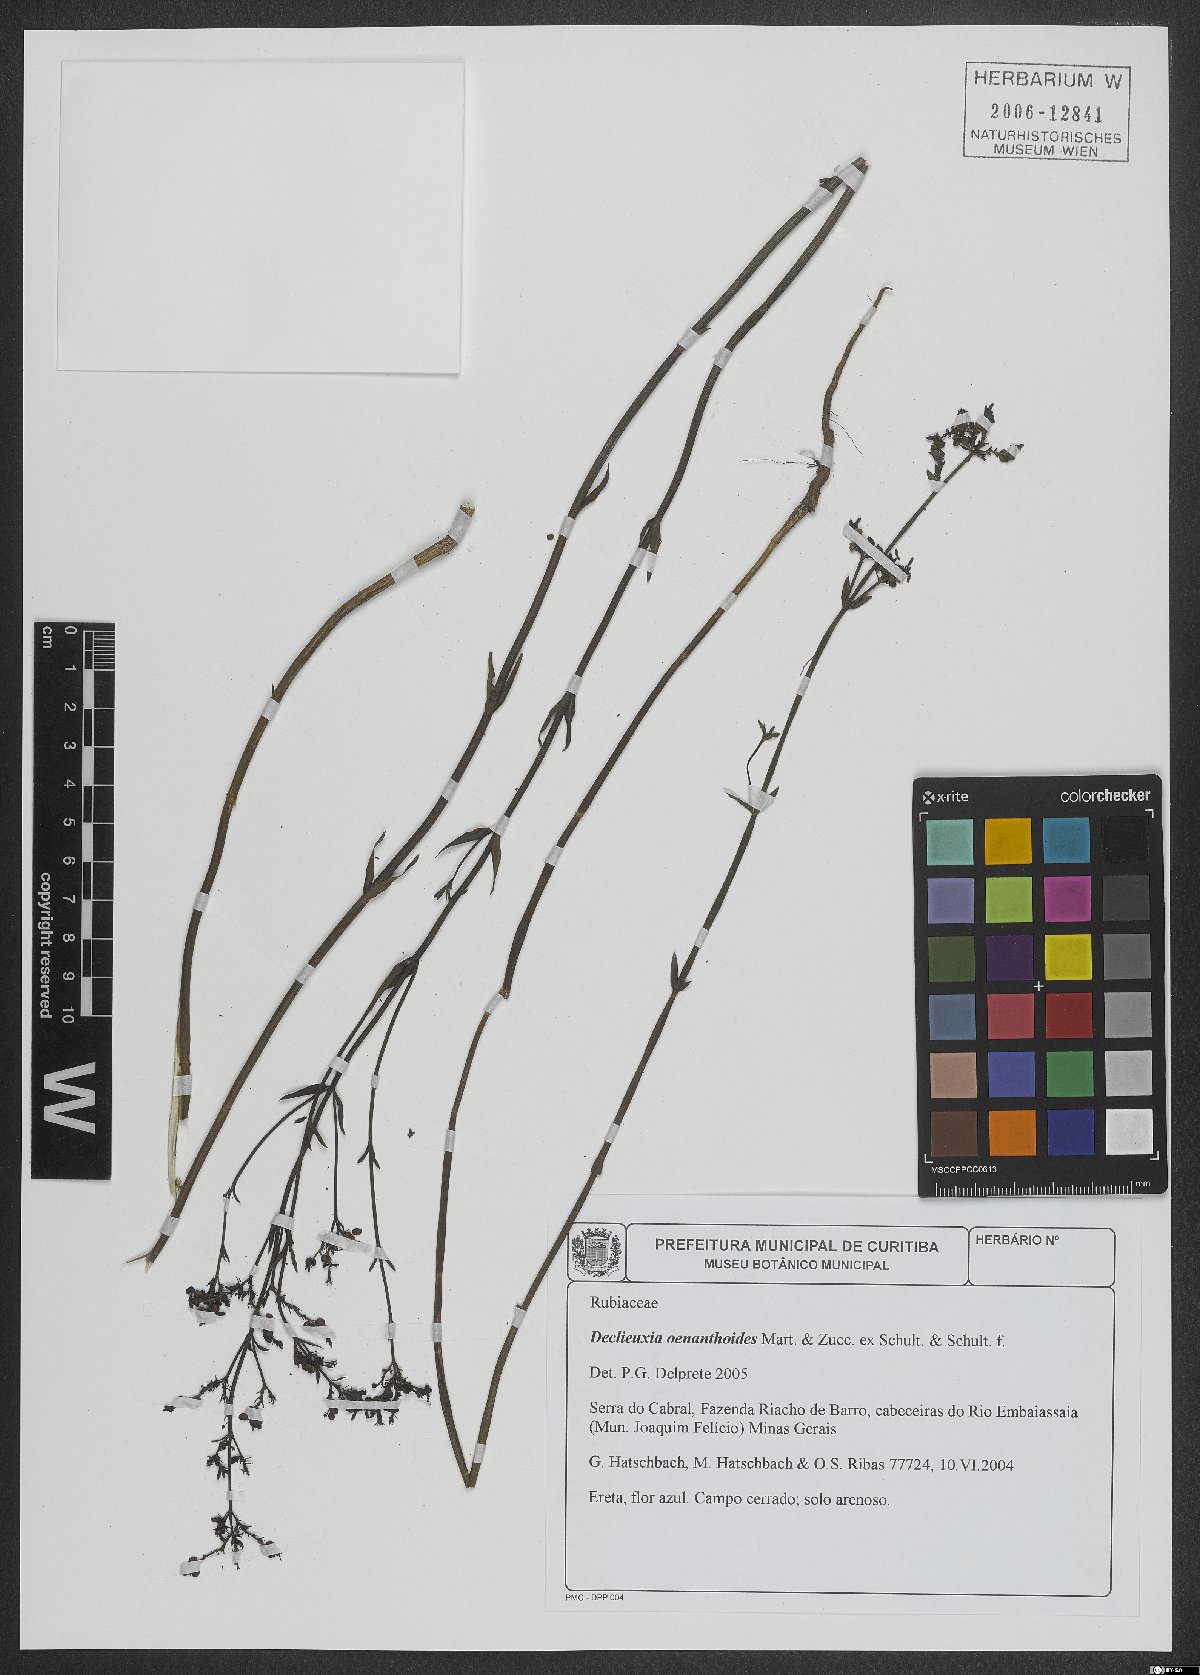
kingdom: Plantae
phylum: Tracheophyta
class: Magnoliopsida
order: Gentianales
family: Rubiaceae
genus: Declieuxia
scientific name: Declieuxia oenanthoides
